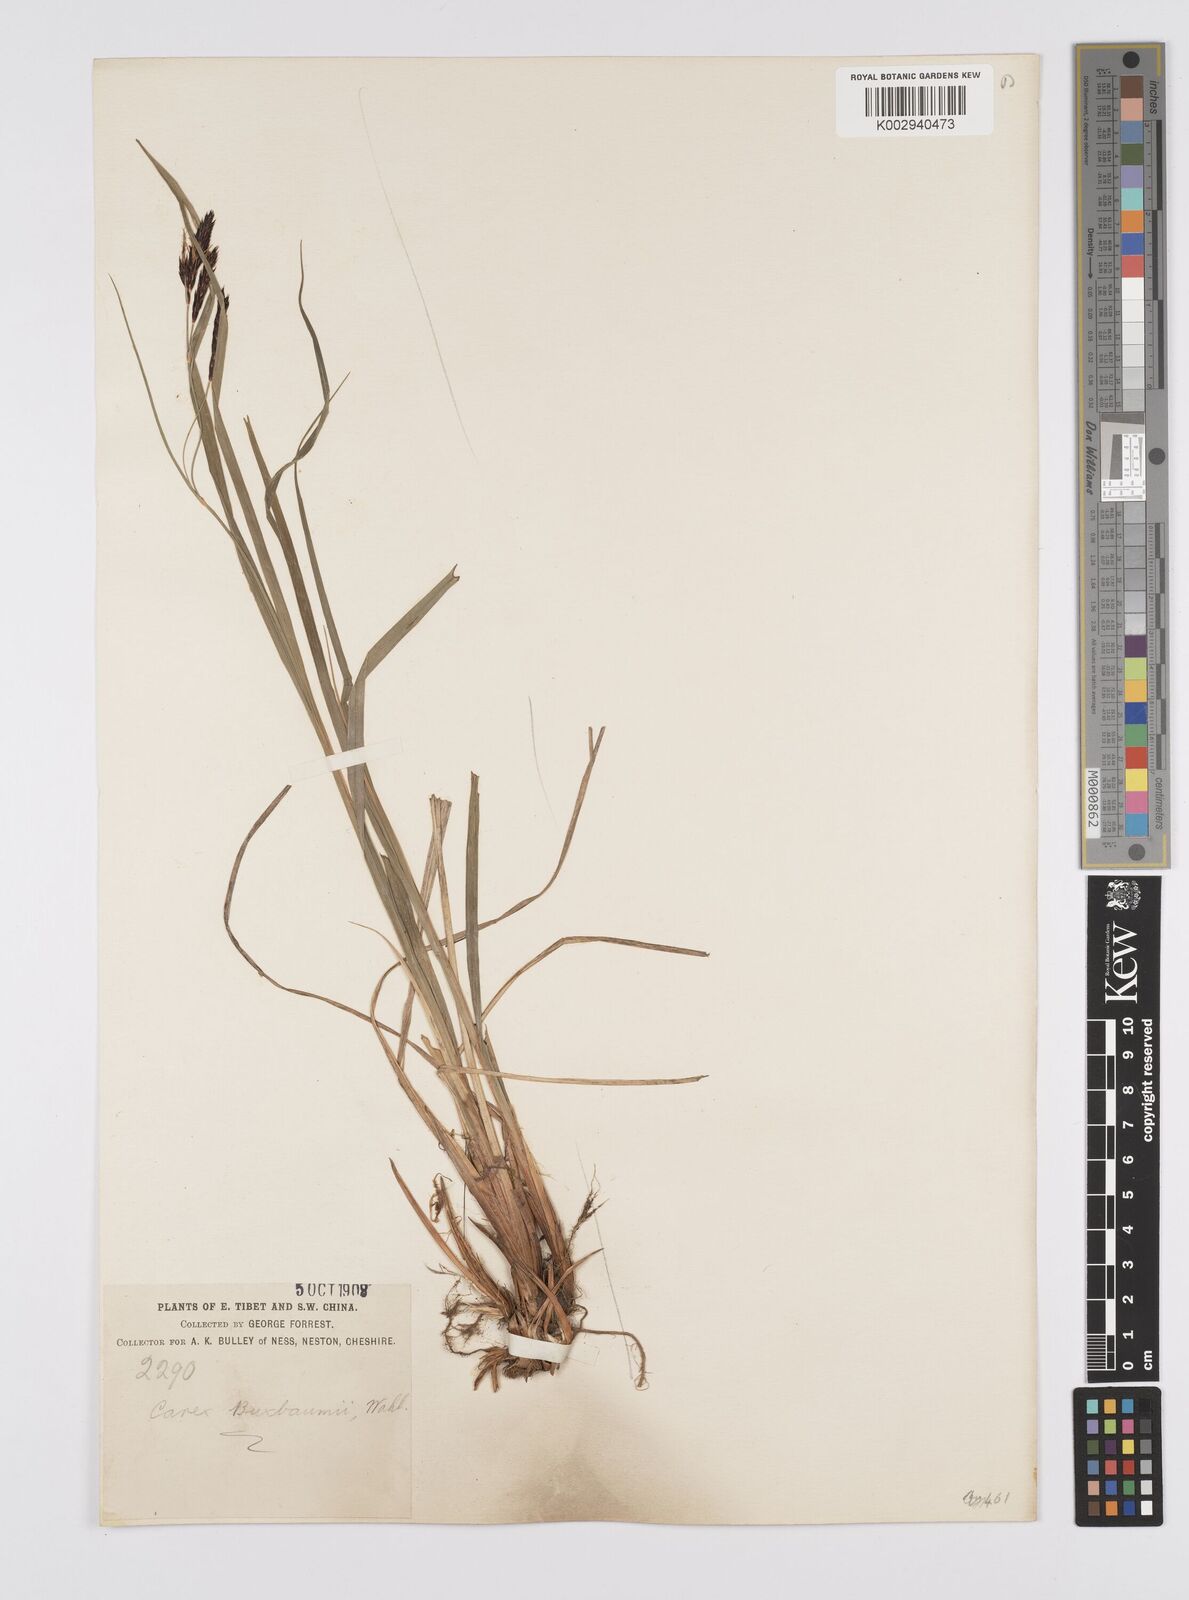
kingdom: Plantae
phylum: Tracheophyta
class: Liliopsida
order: Poales
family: Cyperaceae
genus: Carex
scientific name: Carex buxbaumii
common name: Club sedge
